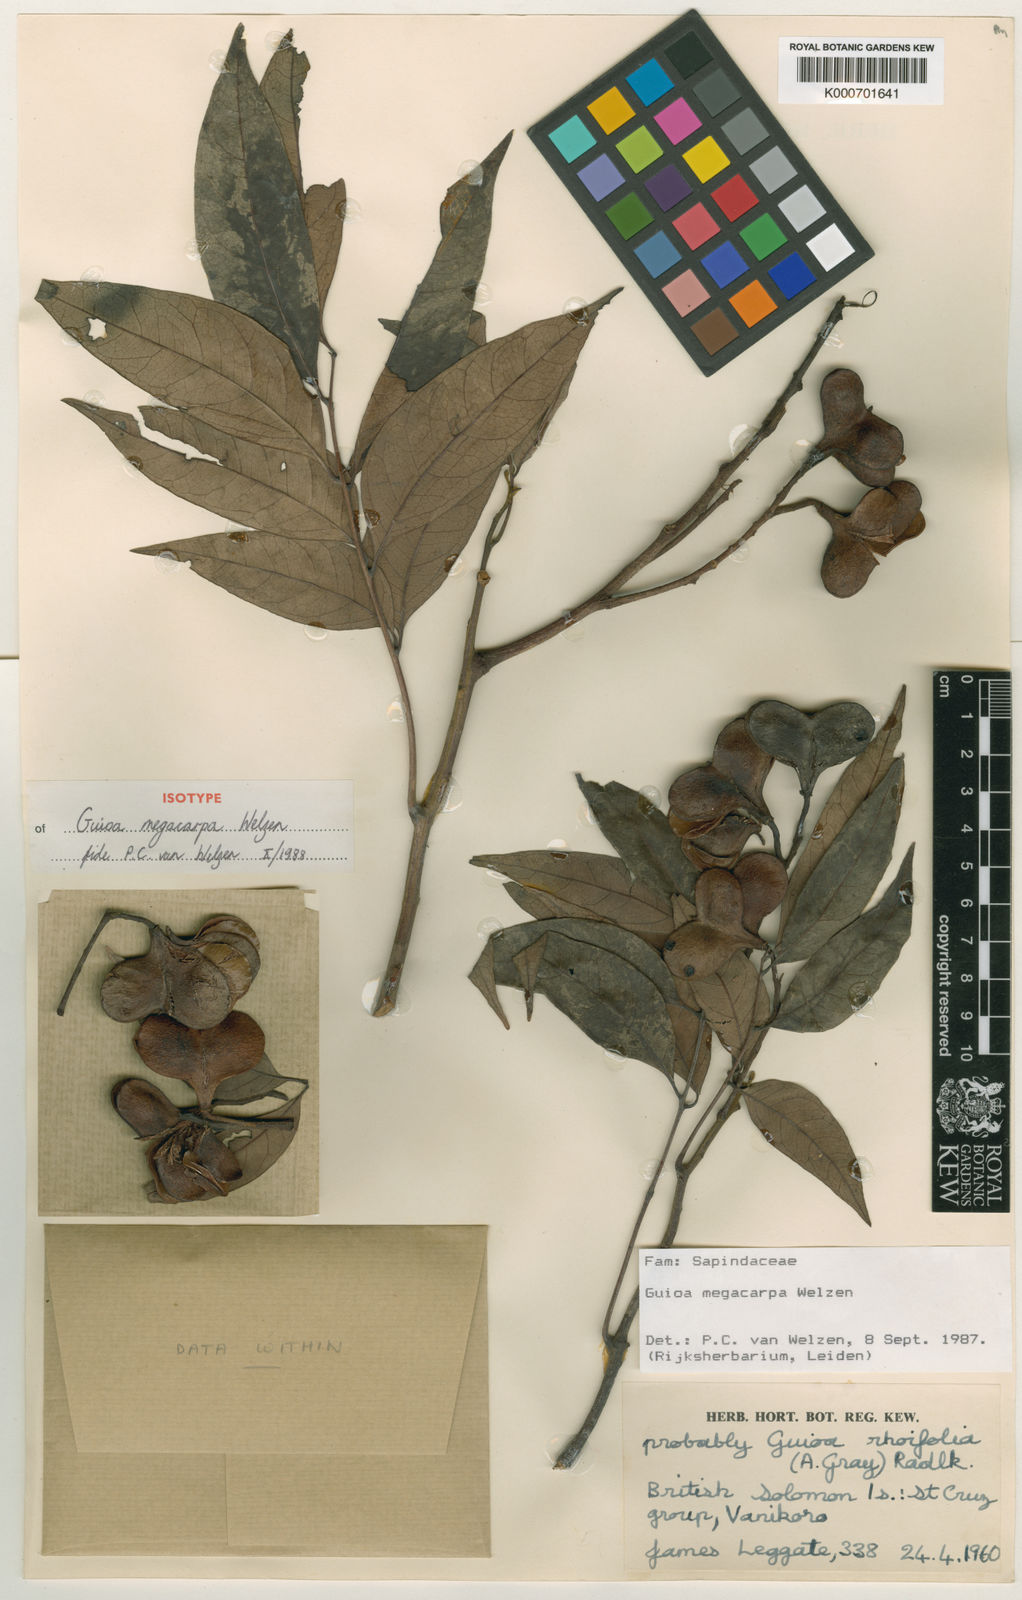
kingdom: Plantae
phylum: Tracheophyta
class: Magnoliopsida
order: Sapindales
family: Sapindaceae
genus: Guioa
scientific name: Guioa megacarpa
